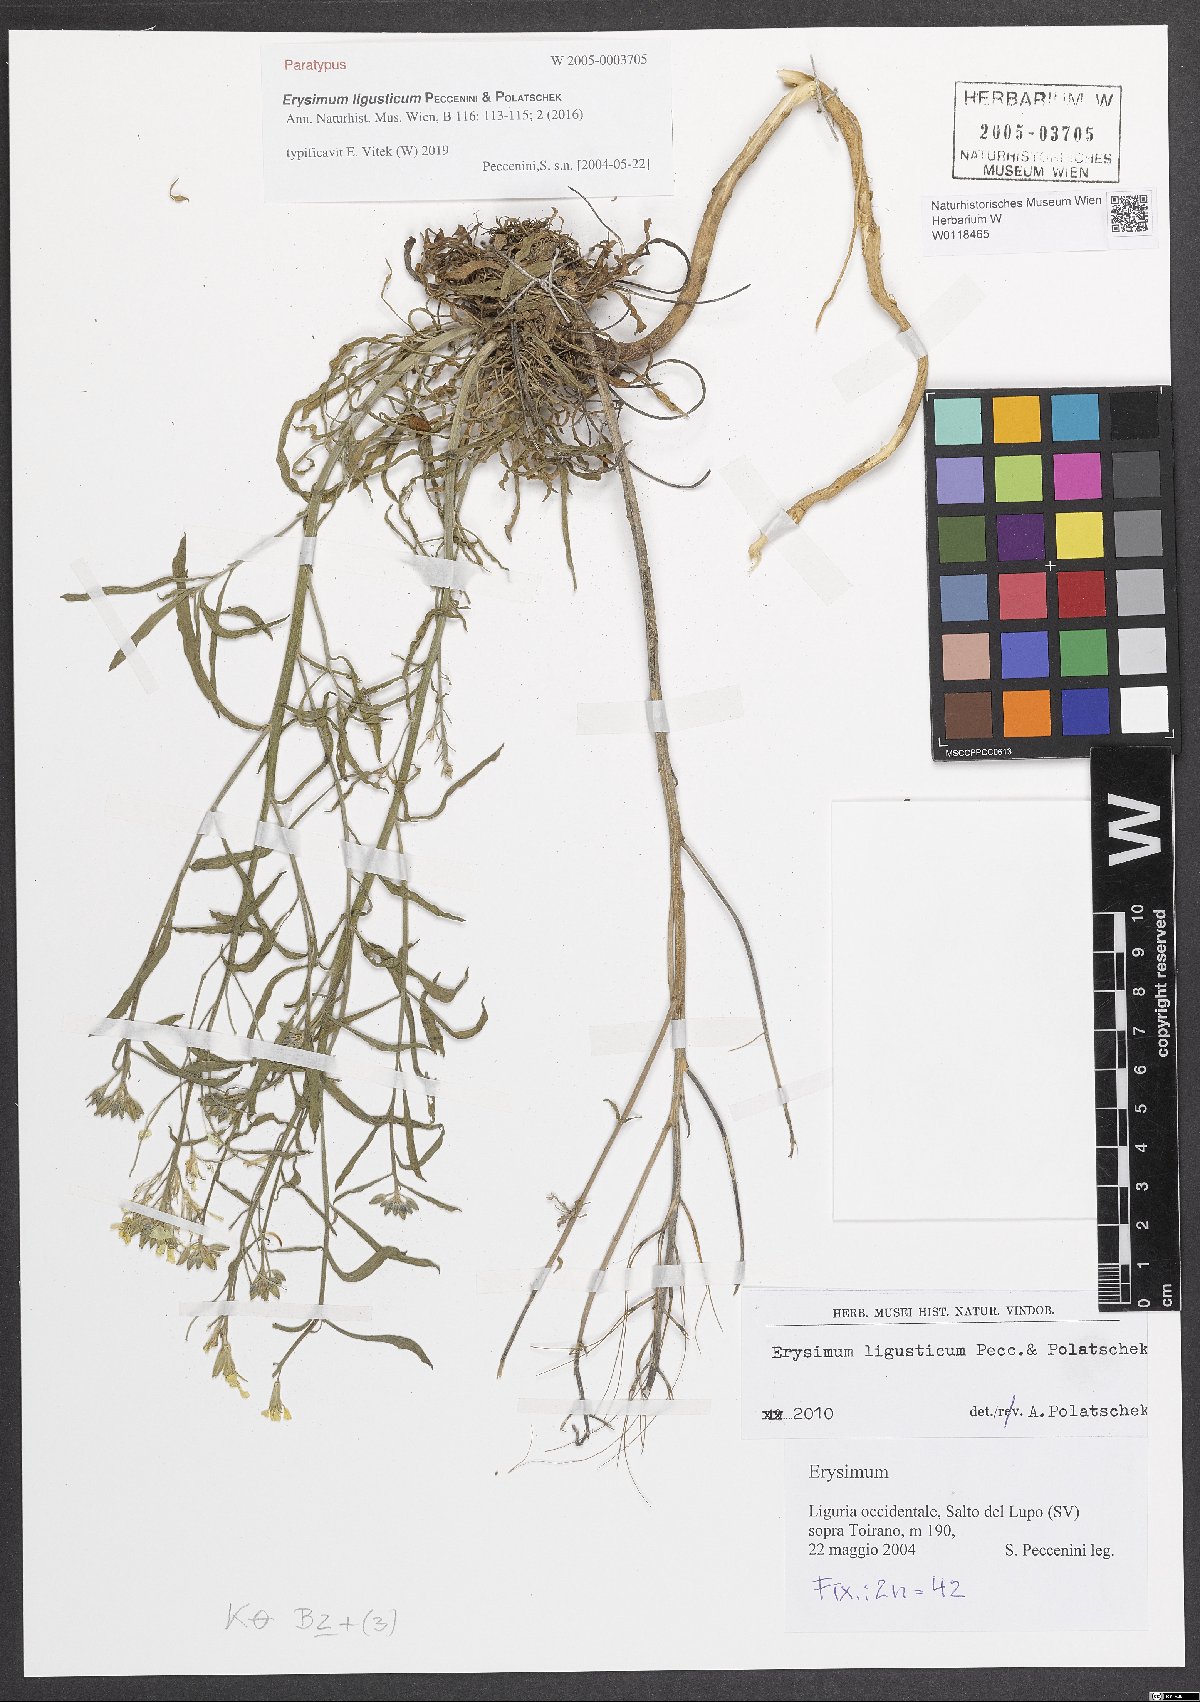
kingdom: Plantae
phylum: Tracheophyta
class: Magnoliopsida
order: Brassicales
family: Brassicaceae
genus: Erysimum
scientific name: Erysimum ligusticum
